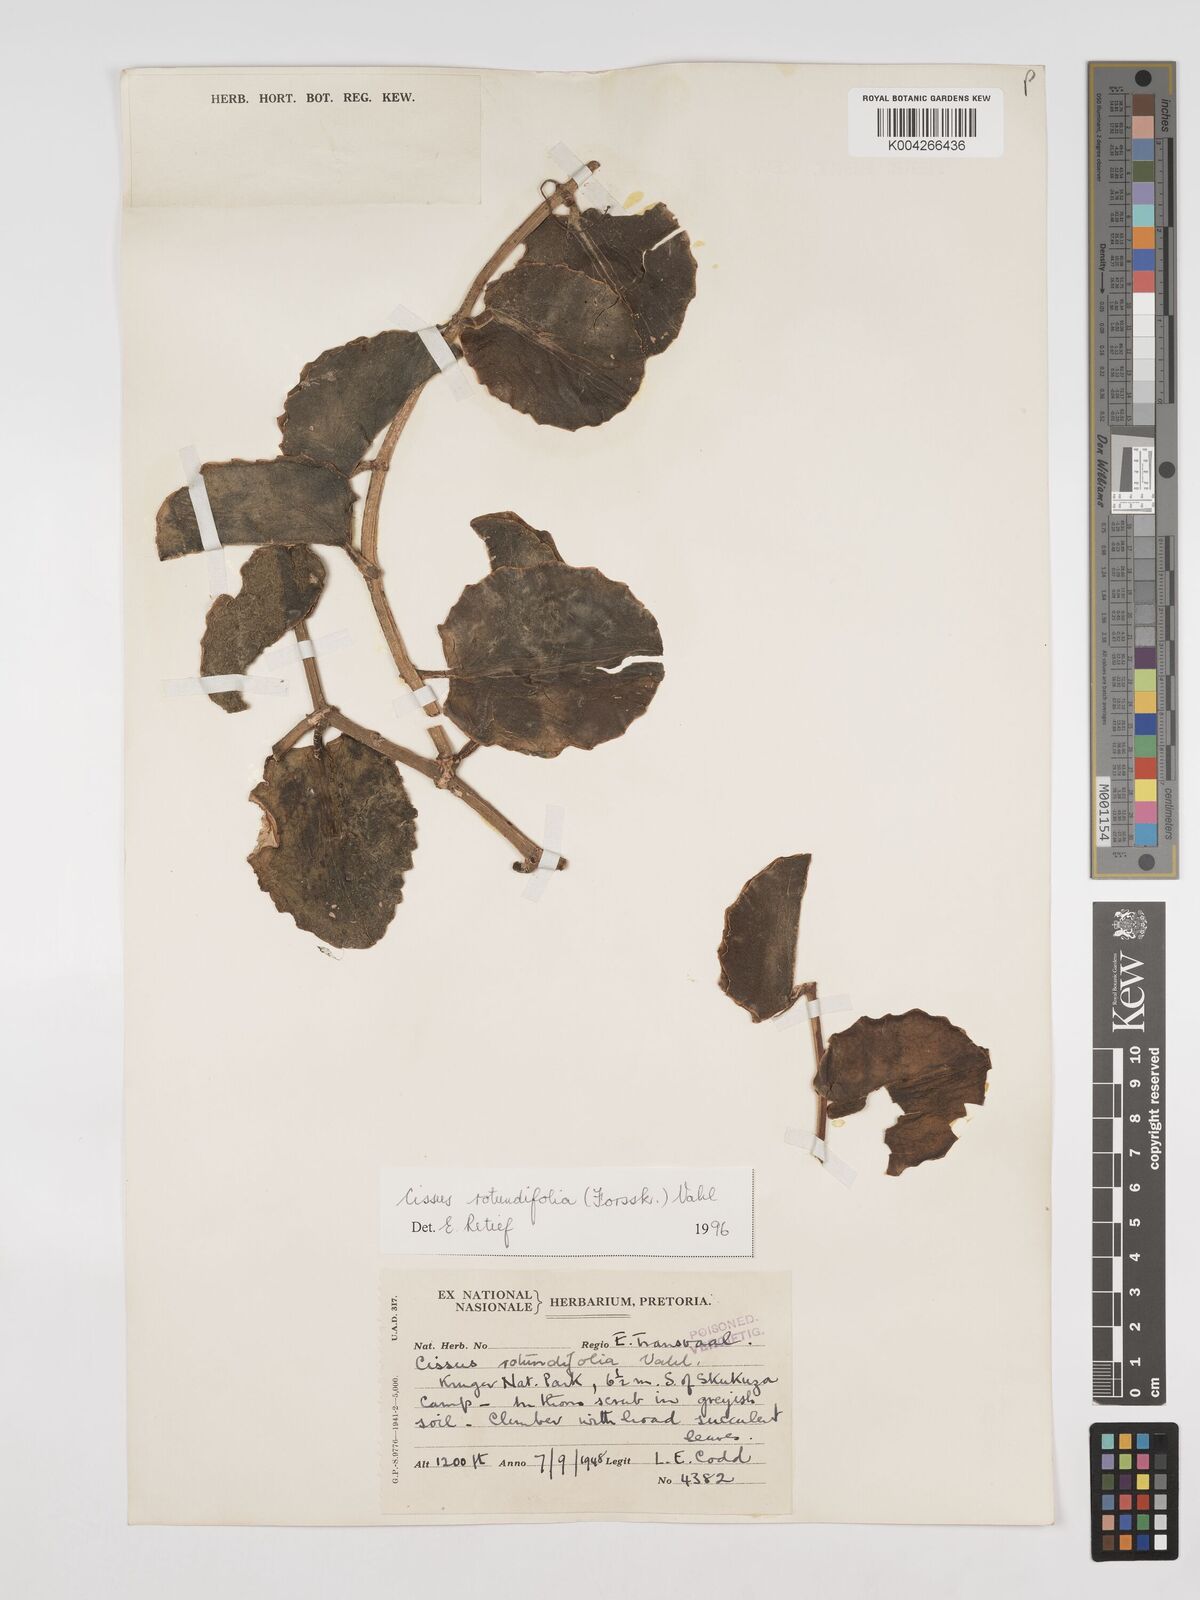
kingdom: Plantae
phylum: Tracheophyta
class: Magnoliopsida
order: Vitales
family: Vitaceae
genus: Cissus
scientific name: Cissus
